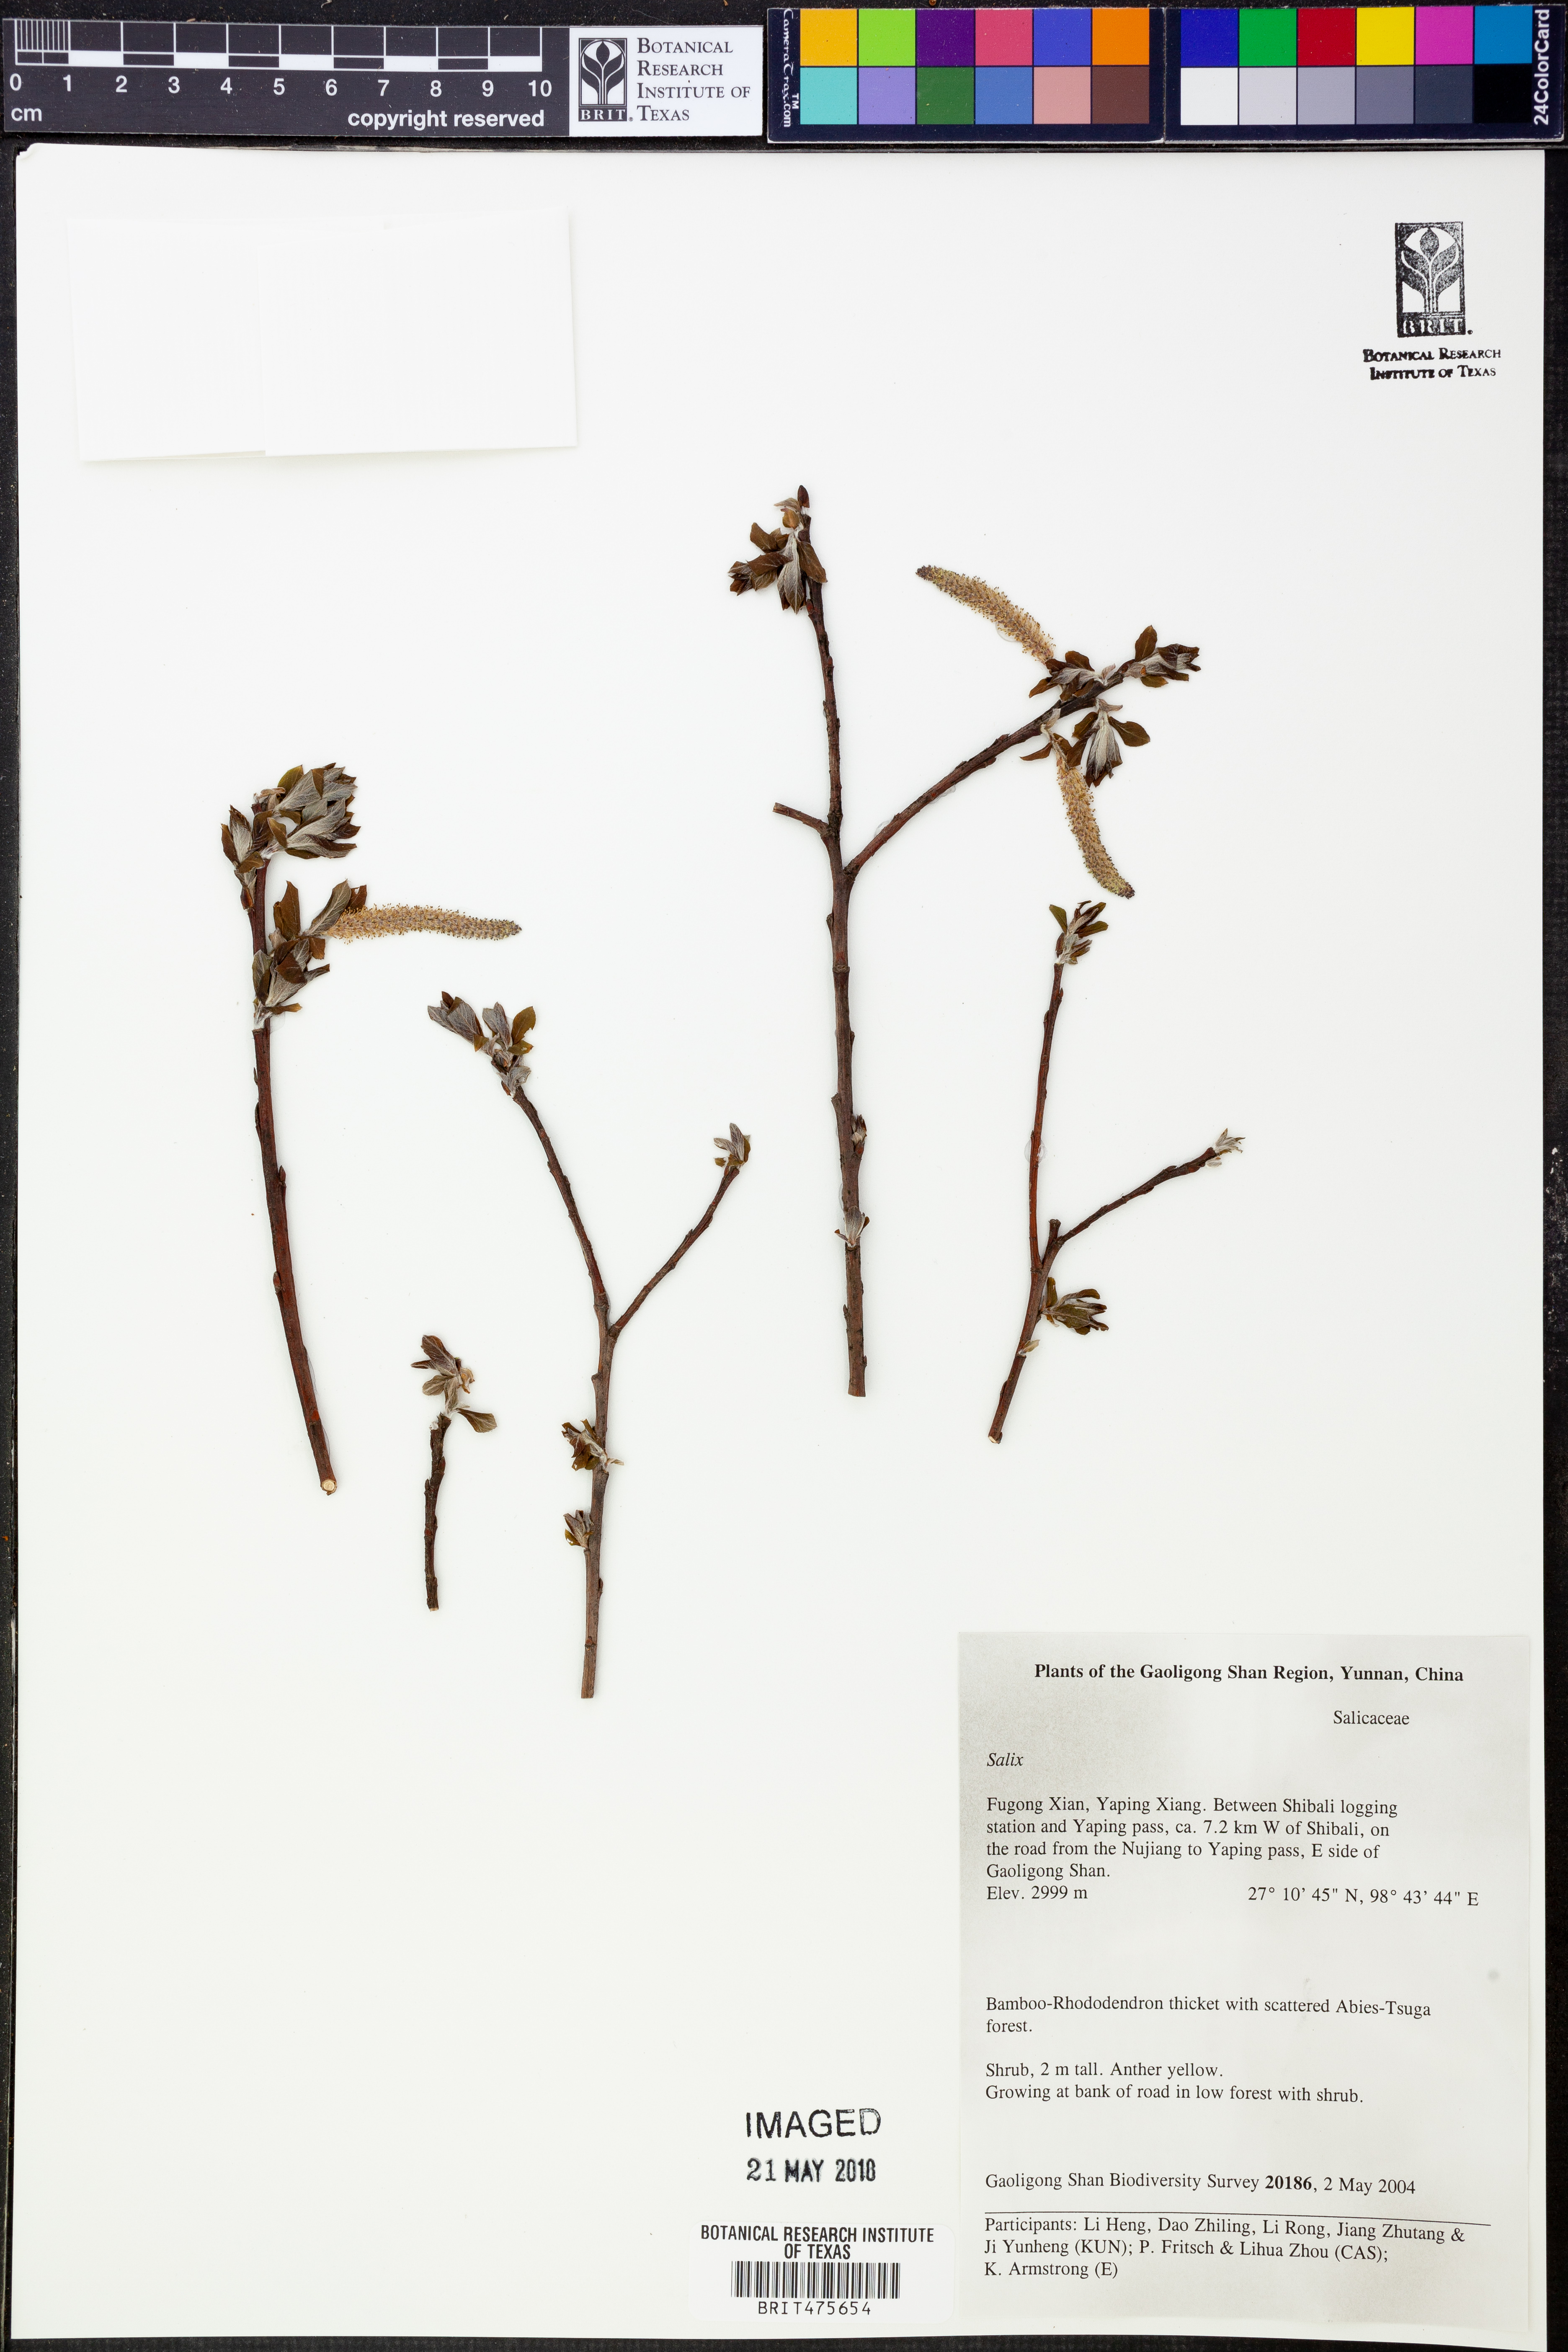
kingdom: Plantae
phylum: Tracheophyta
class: Magnoliopsida
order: Malpighiales
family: Salicaceae
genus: Salix
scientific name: Salix
